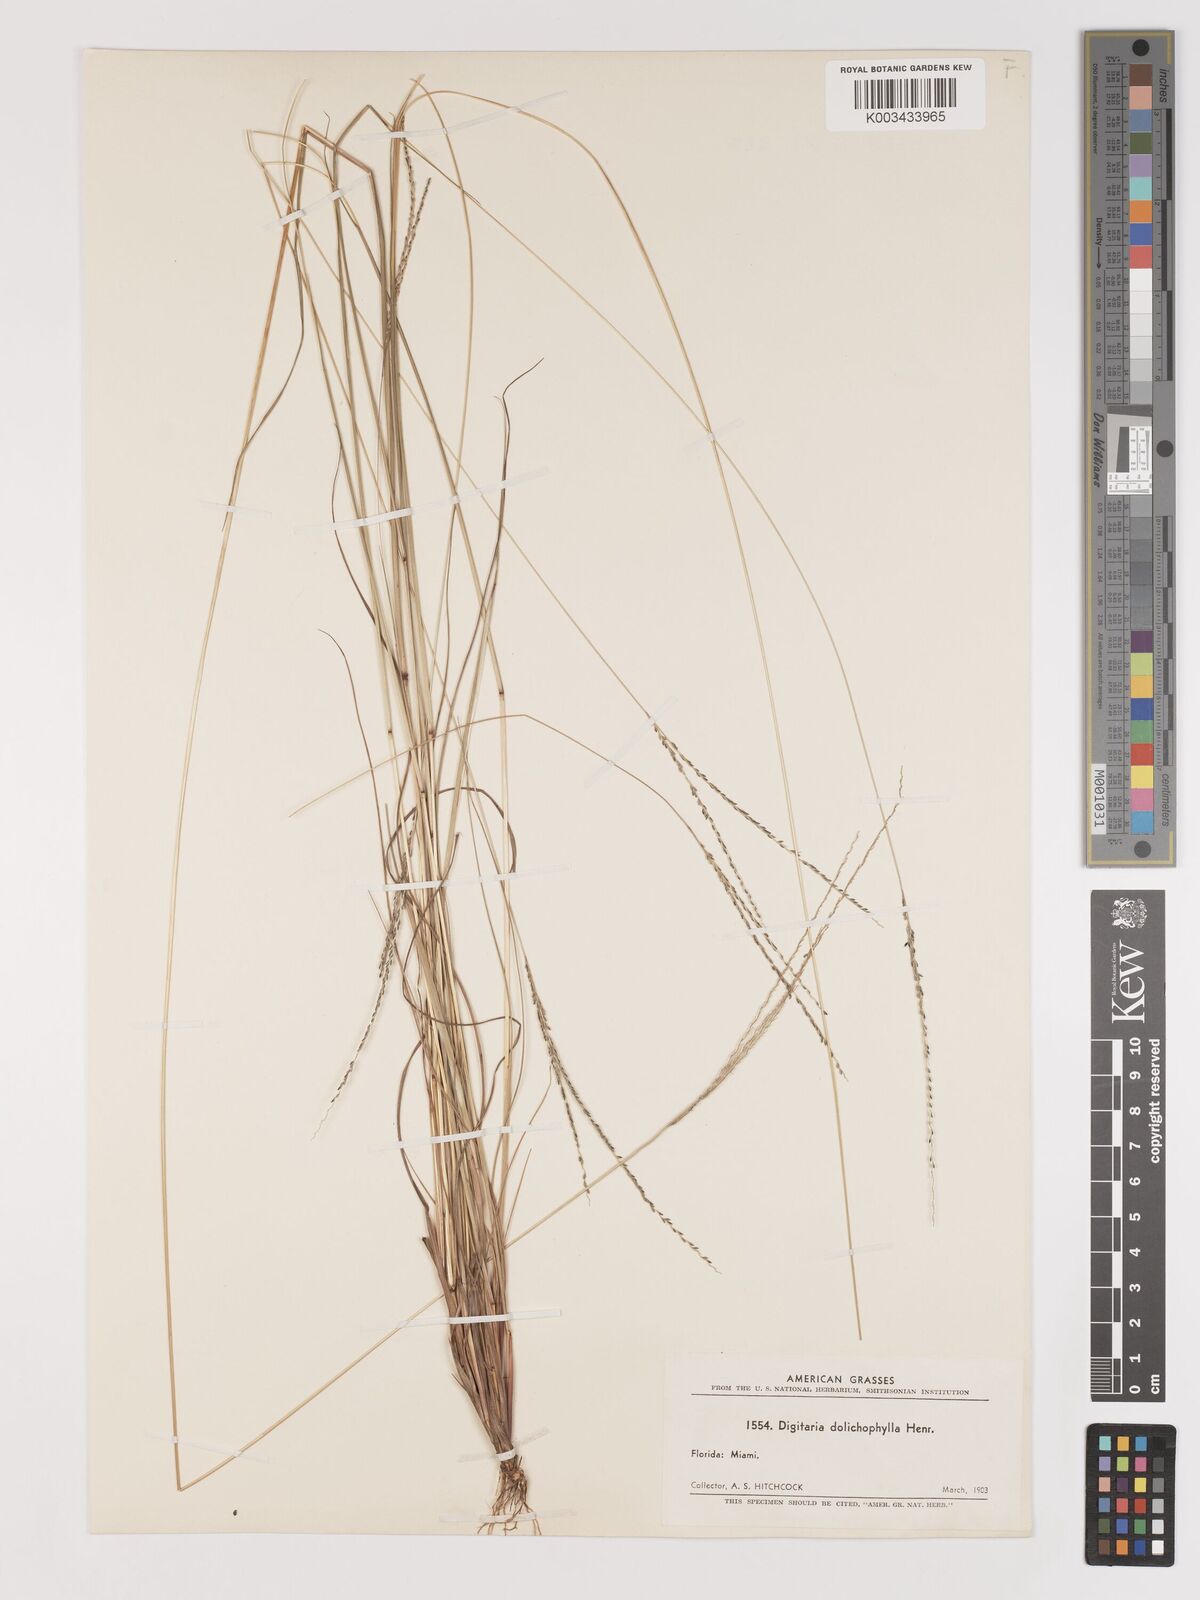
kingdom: Plantae
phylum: Tracheophyta
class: Liliopsida
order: Poales
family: Poaceae
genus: Digitaria
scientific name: Digitaria filiformis
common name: Slender crabgrass
